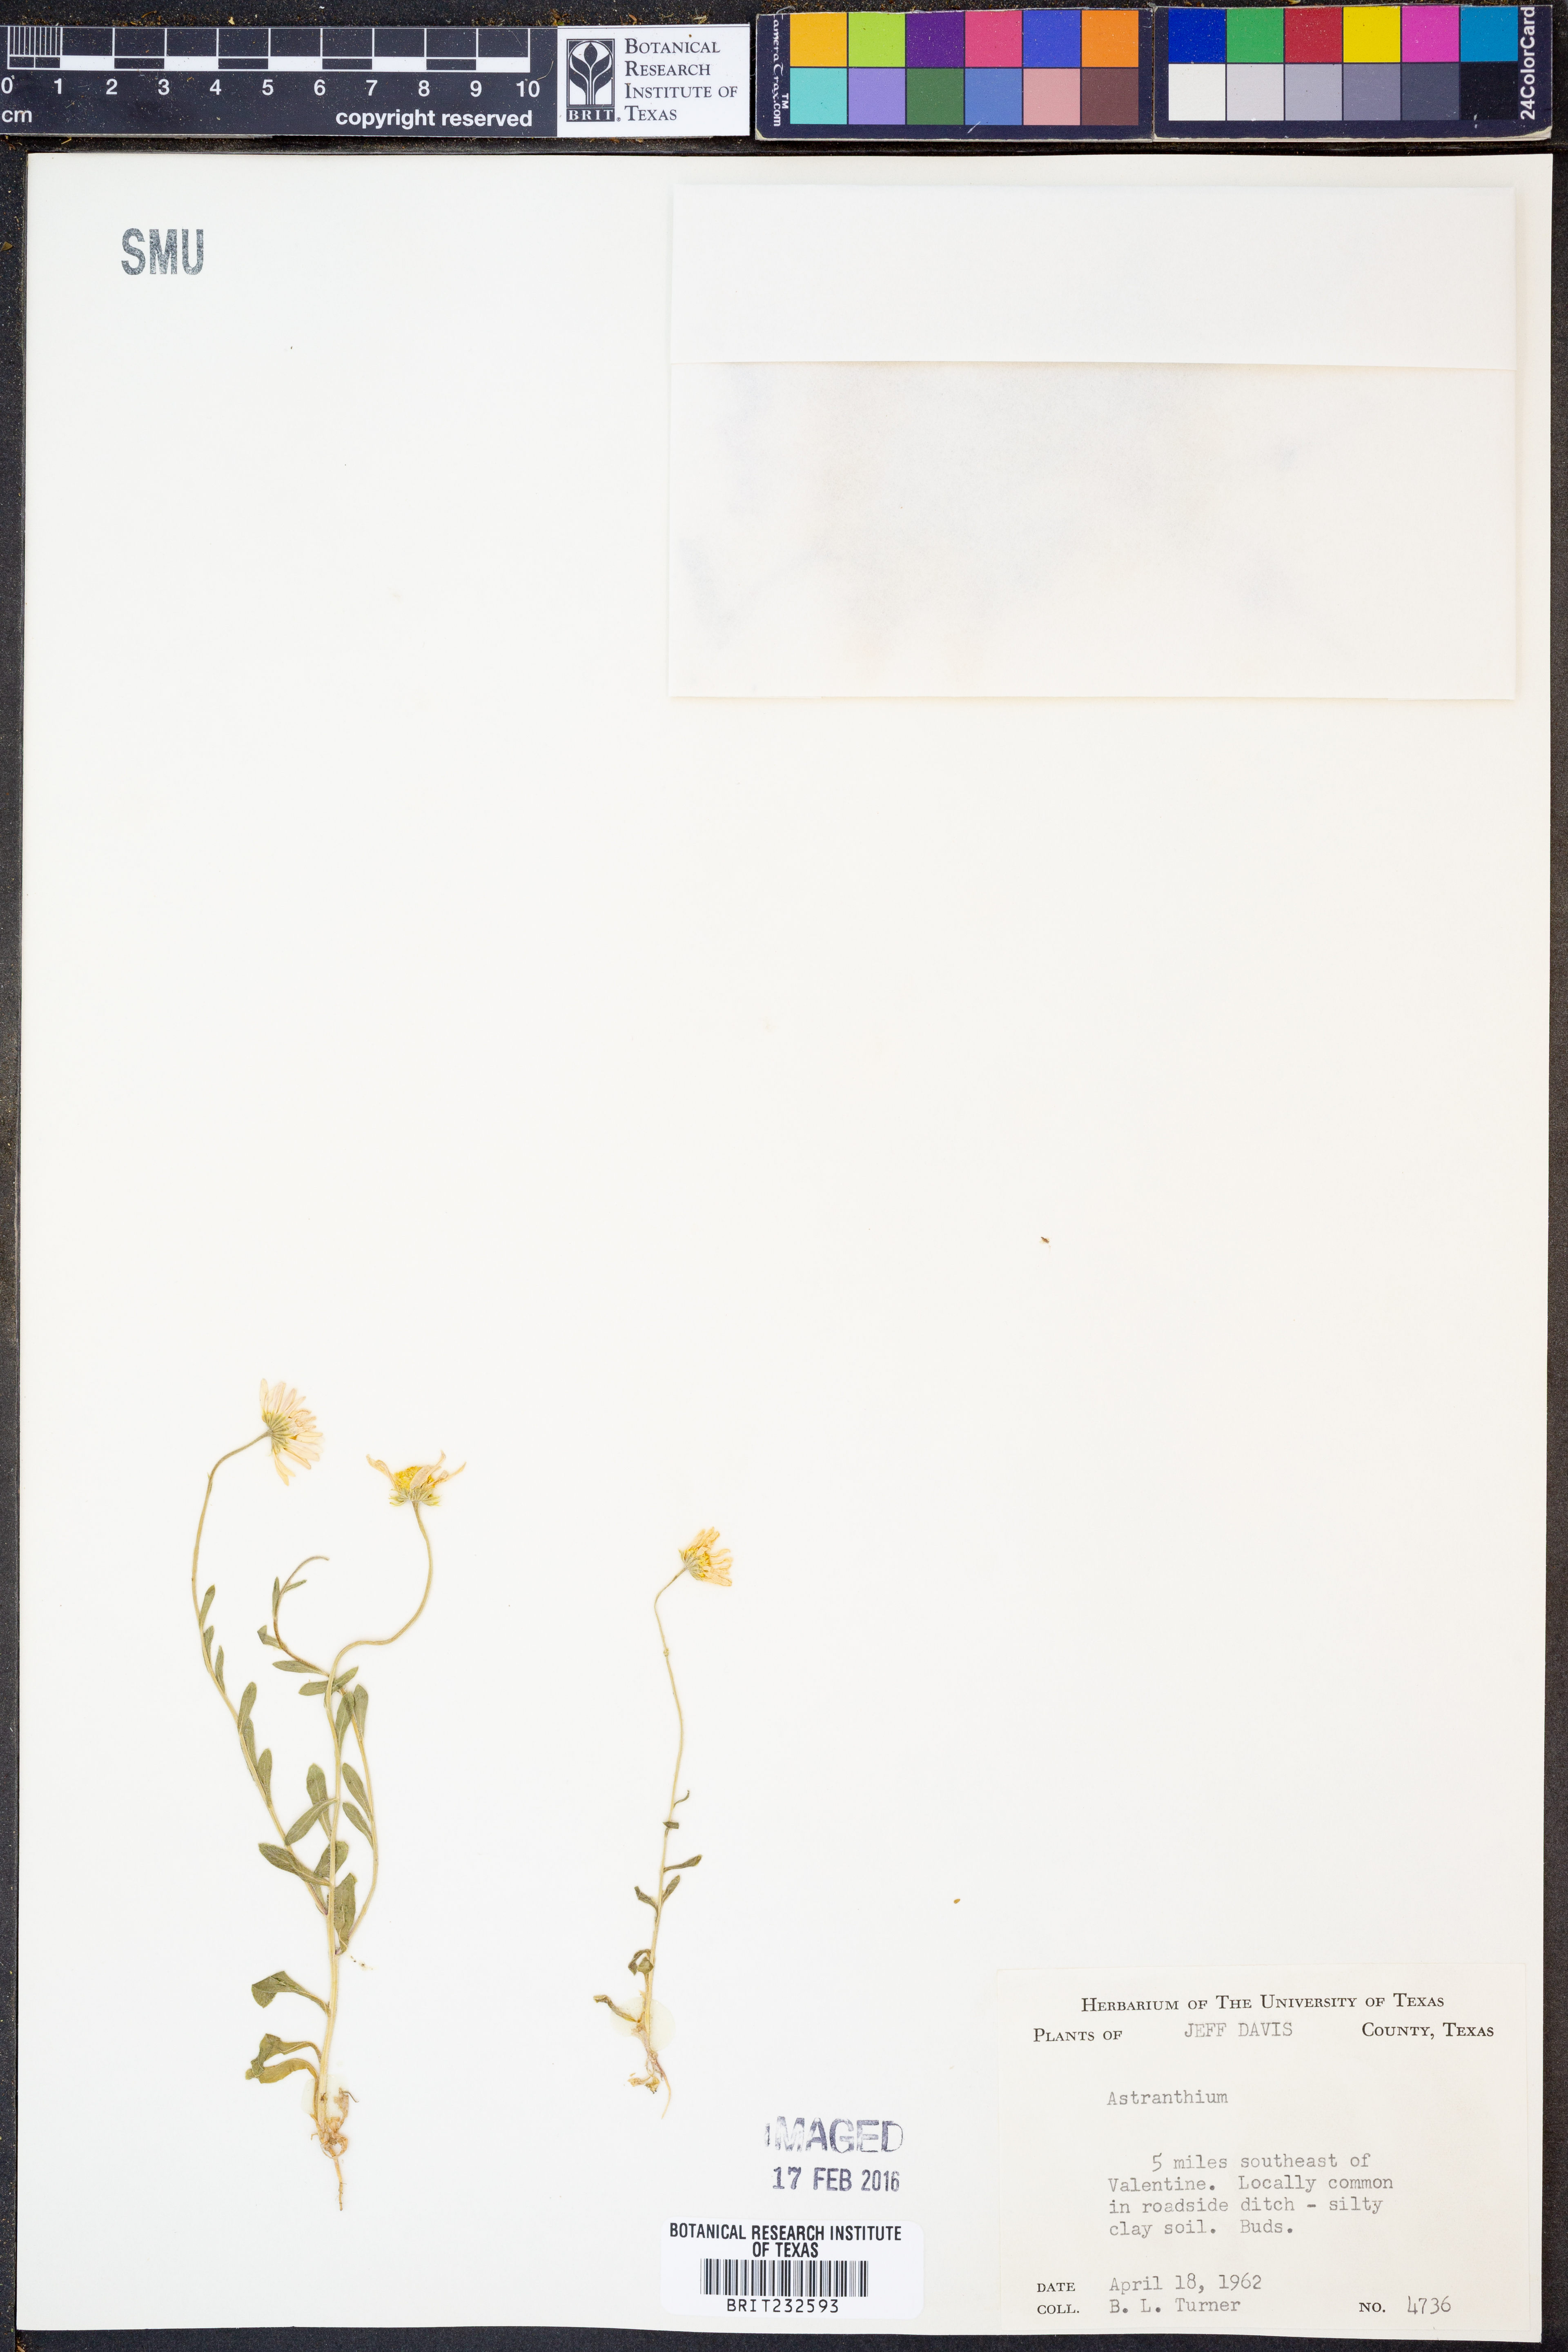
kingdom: Plantae
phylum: Tracheophyta
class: Magnoliopsida
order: Asterales
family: Asteraceae
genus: Astranthium
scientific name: Astranthium robustum
